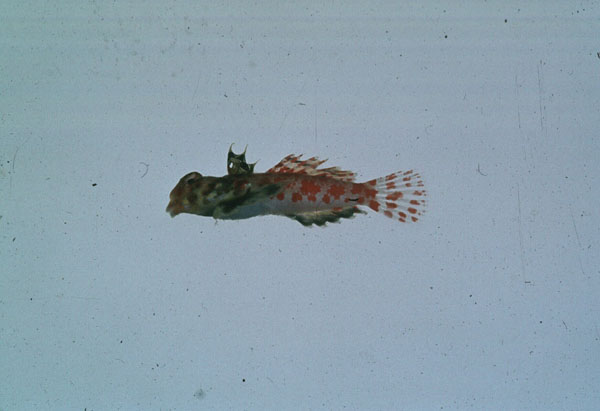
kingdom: Animalia
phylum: Chordata
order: Perciformes
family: Callionymidae
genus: Synchiropus
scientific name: Synchiropus stellatus
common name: Starry dragonet
